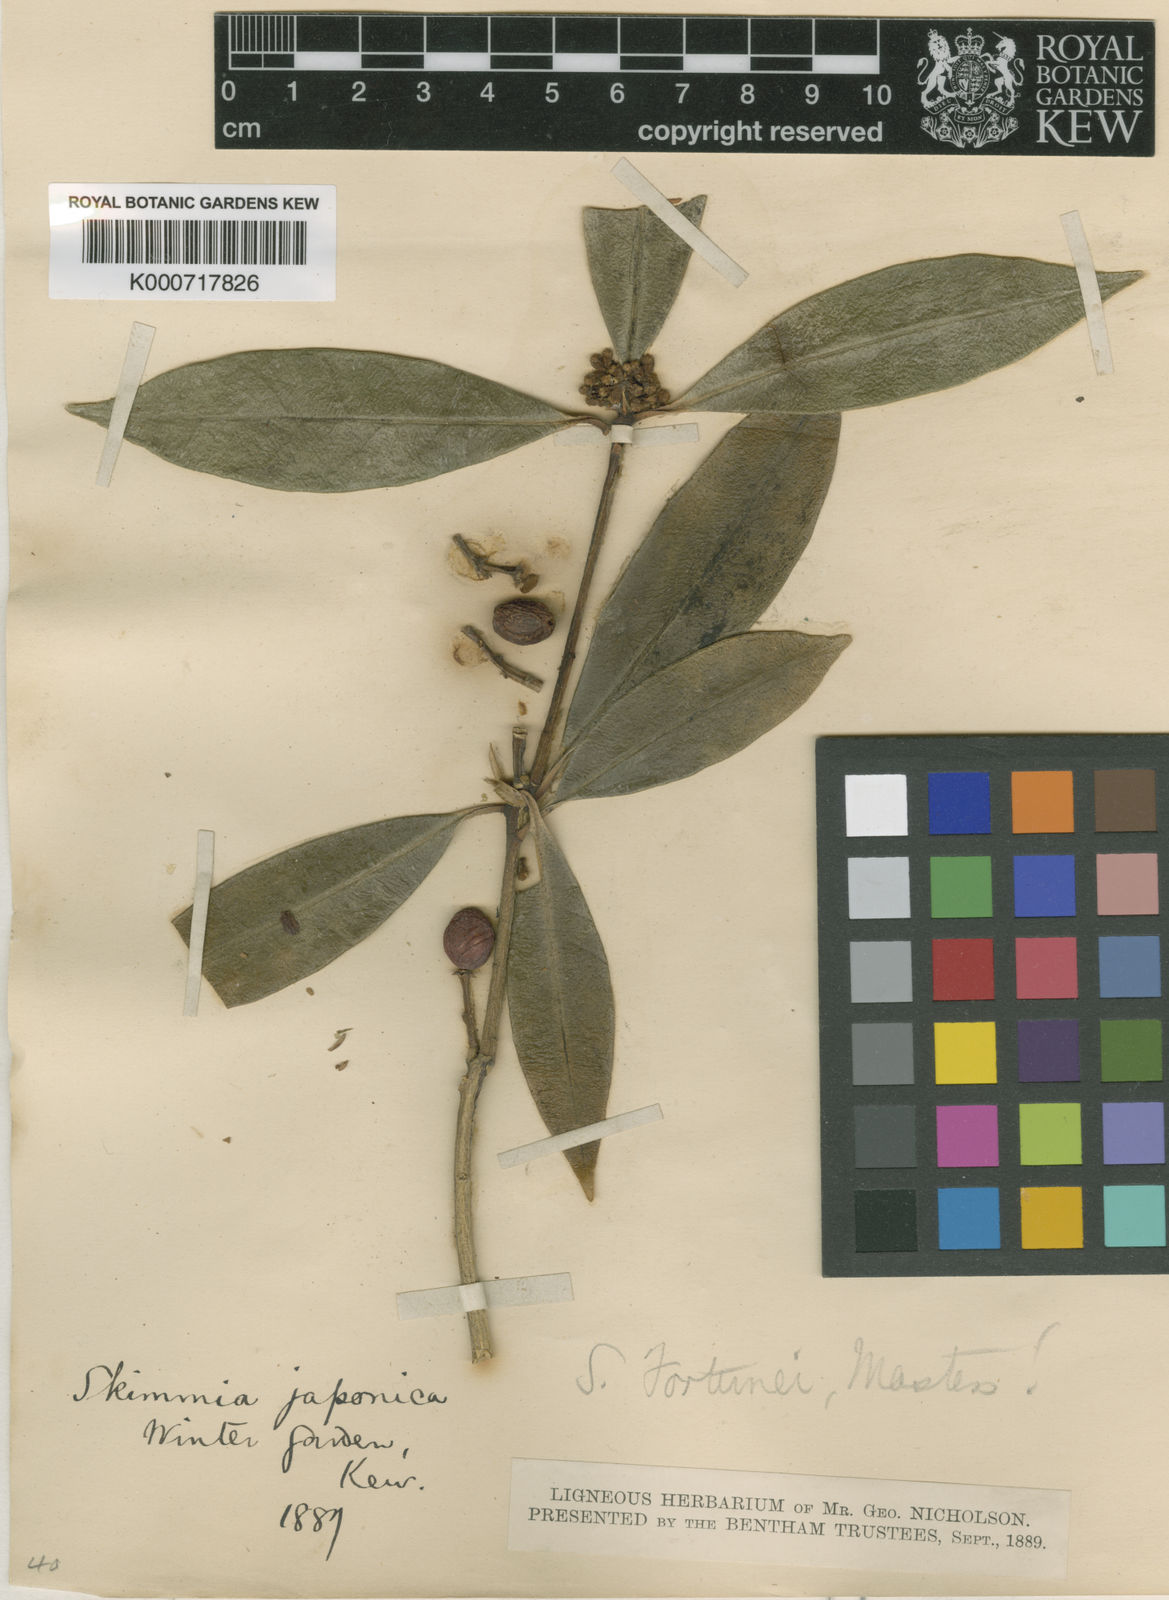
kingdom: Plantae
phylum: Tracheophyta
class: Magnoliopsida
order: Sapindales
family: Rutaceae
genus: Skimmia
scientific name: Skimmia japonica
